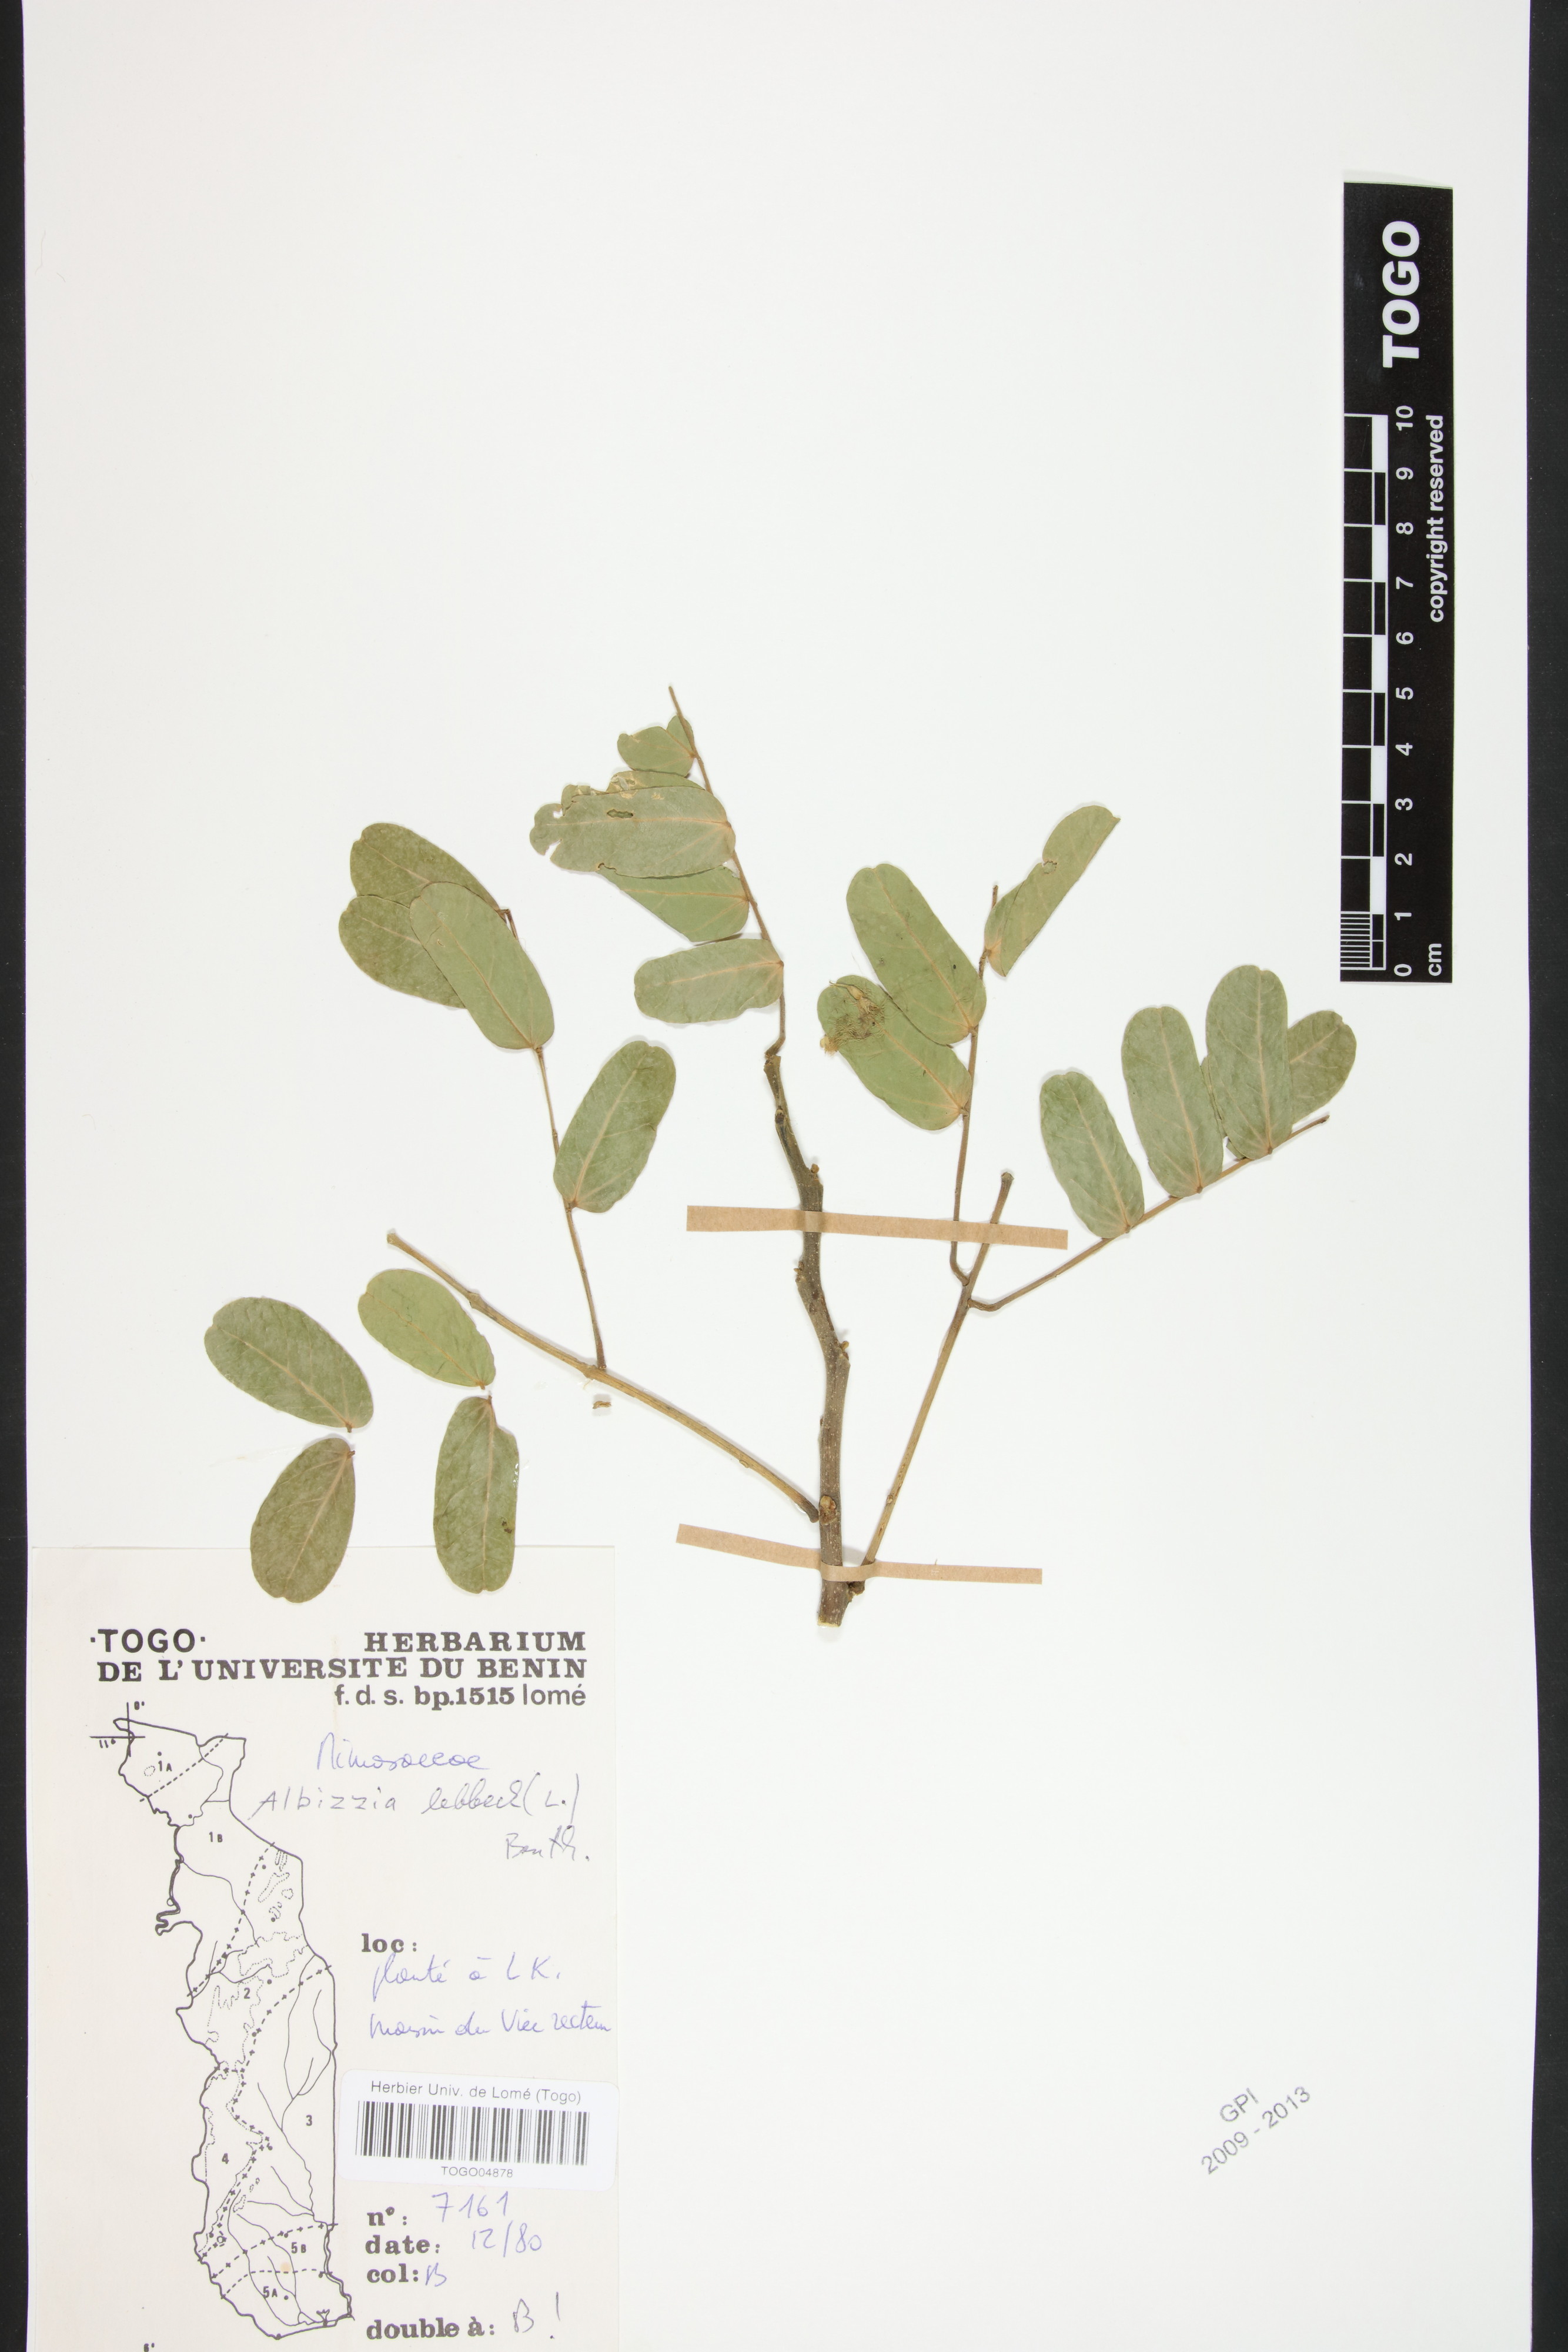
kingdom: Plantae
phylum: Tracheophyta
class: Magnoliopsida
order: Fabales
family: Fabaceae
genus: Albizia
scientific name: Albizia lebbeck
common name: Woman's tongue
